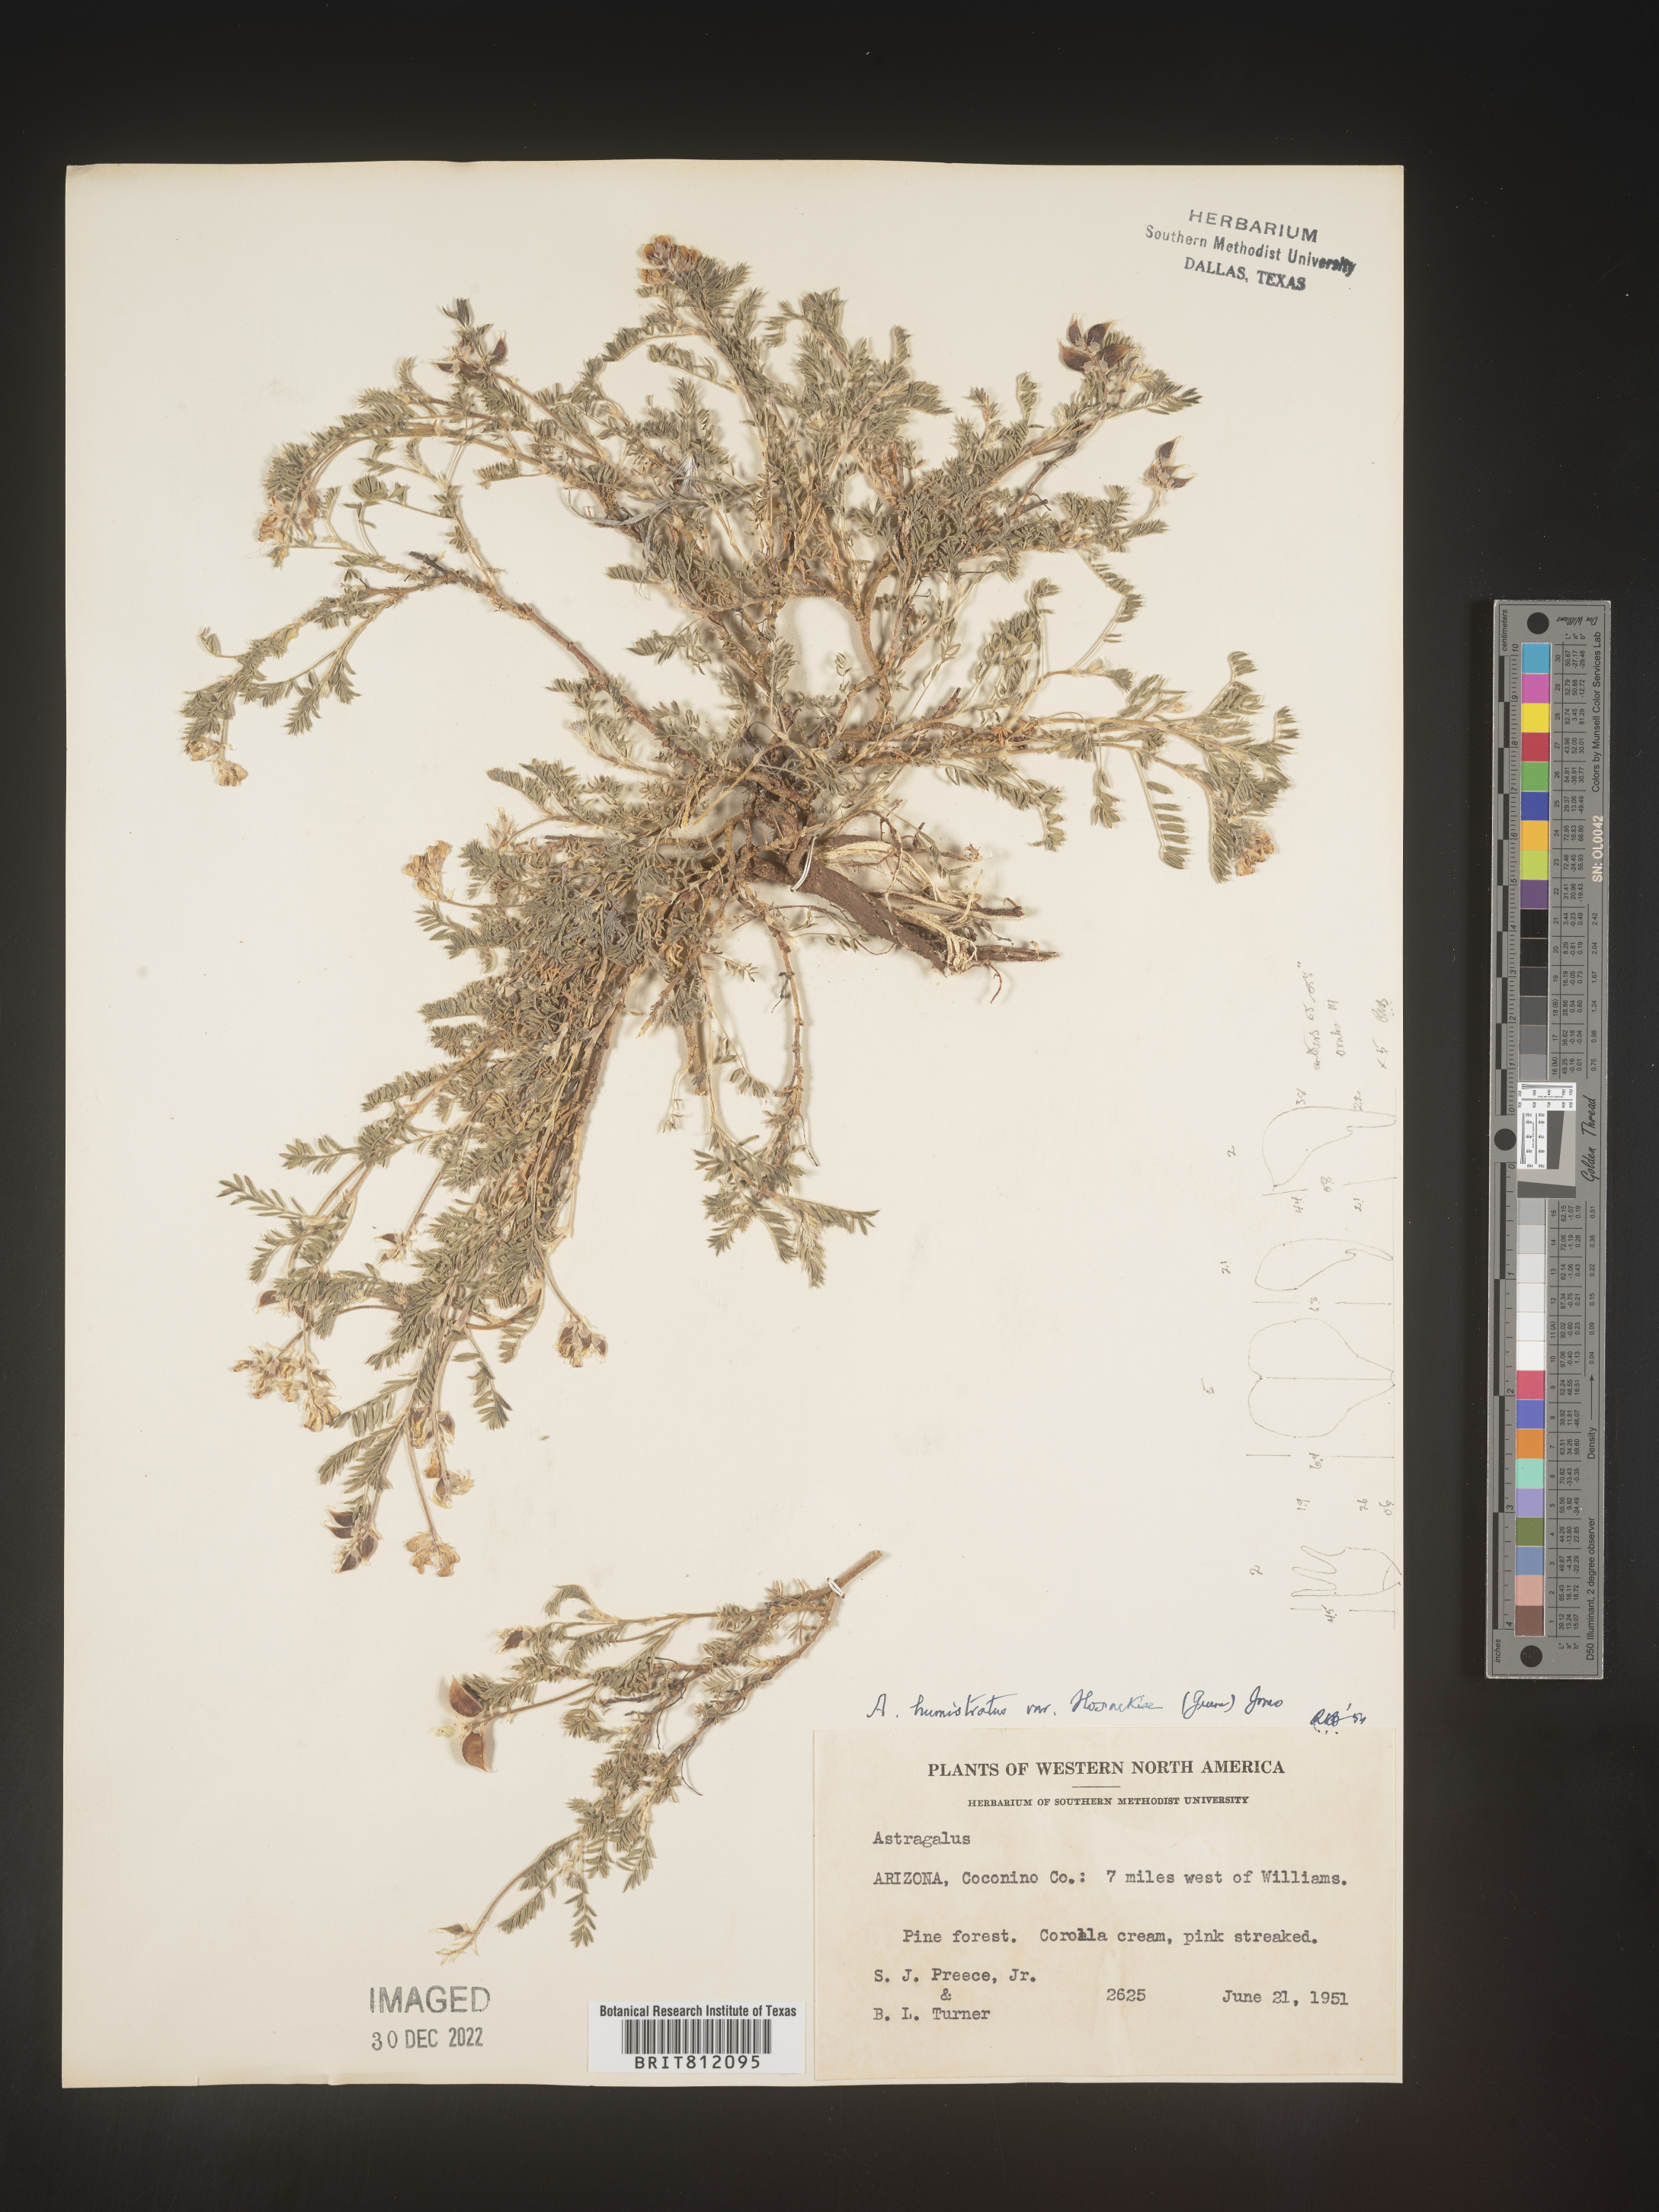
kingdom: Plantae
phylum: Tracheophyta
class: Magnoliopsida
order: Fabales
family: Fabaceae
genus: Astragalus
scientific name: Astragalus
